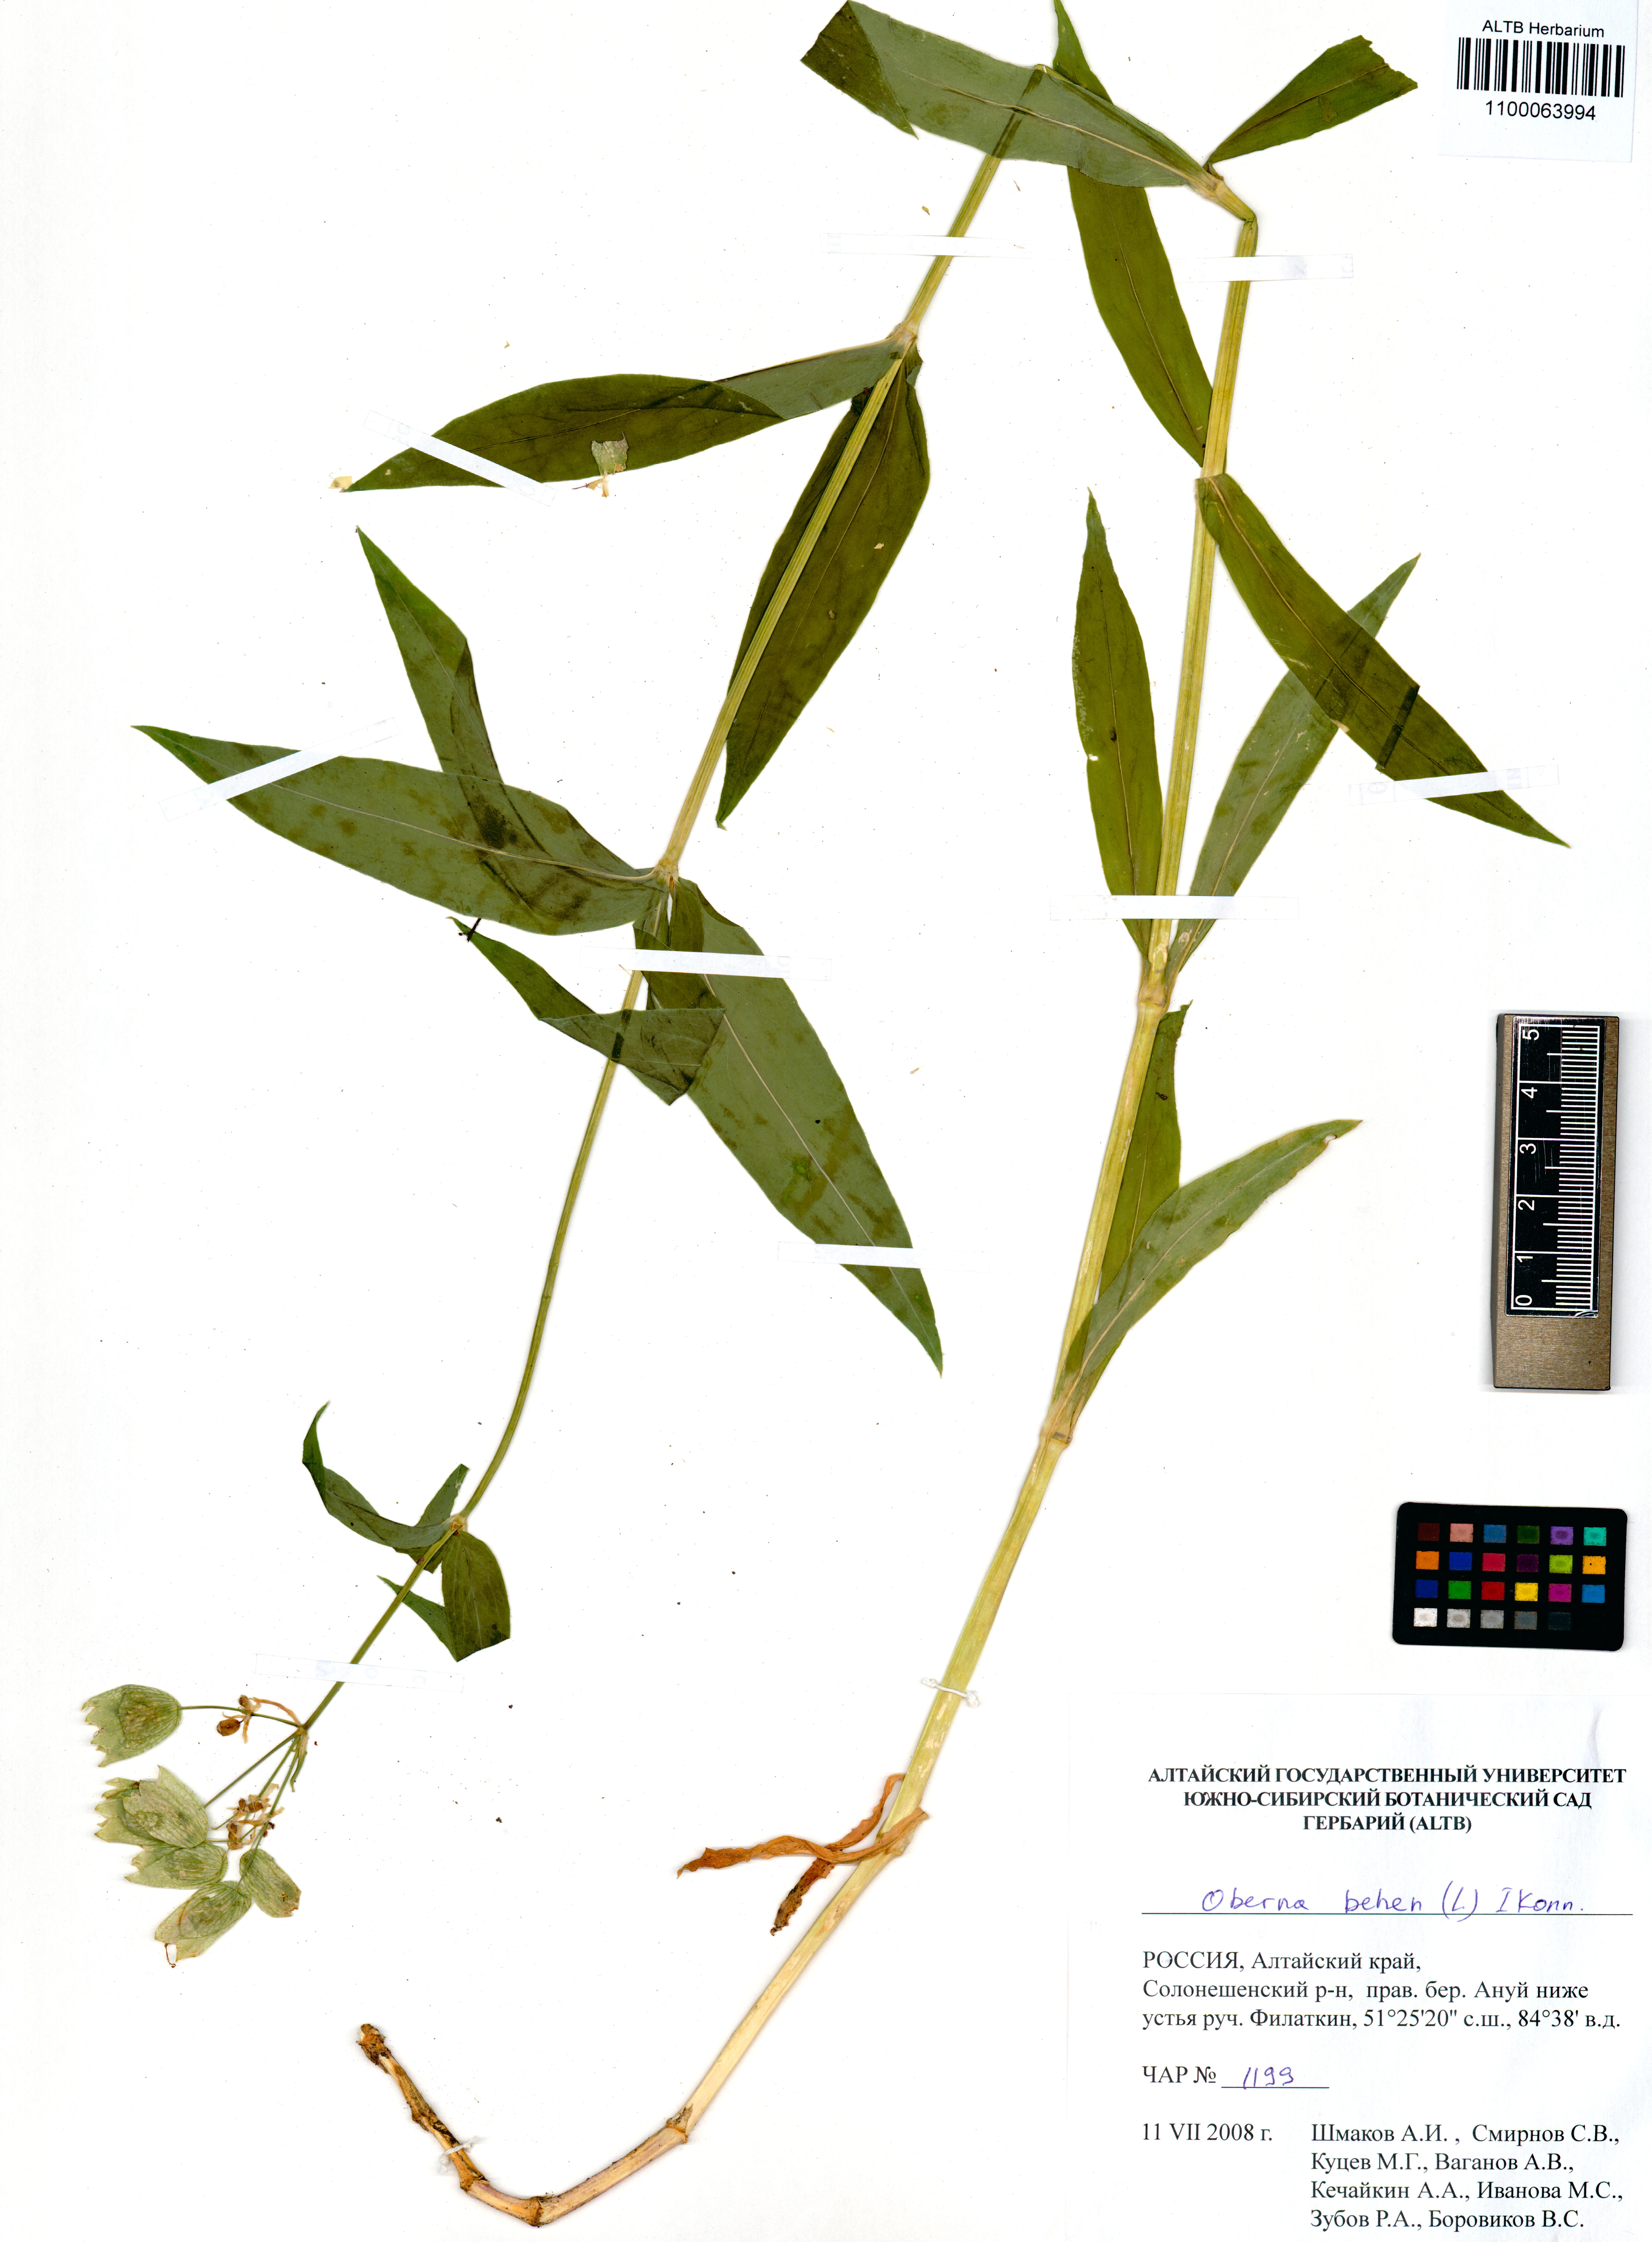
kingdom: Plantae
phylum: Tracheophyta
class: Magnoliopsida
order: Caryophyllales
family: Caryophyllaceae
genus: Silene
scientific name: Silene behen
